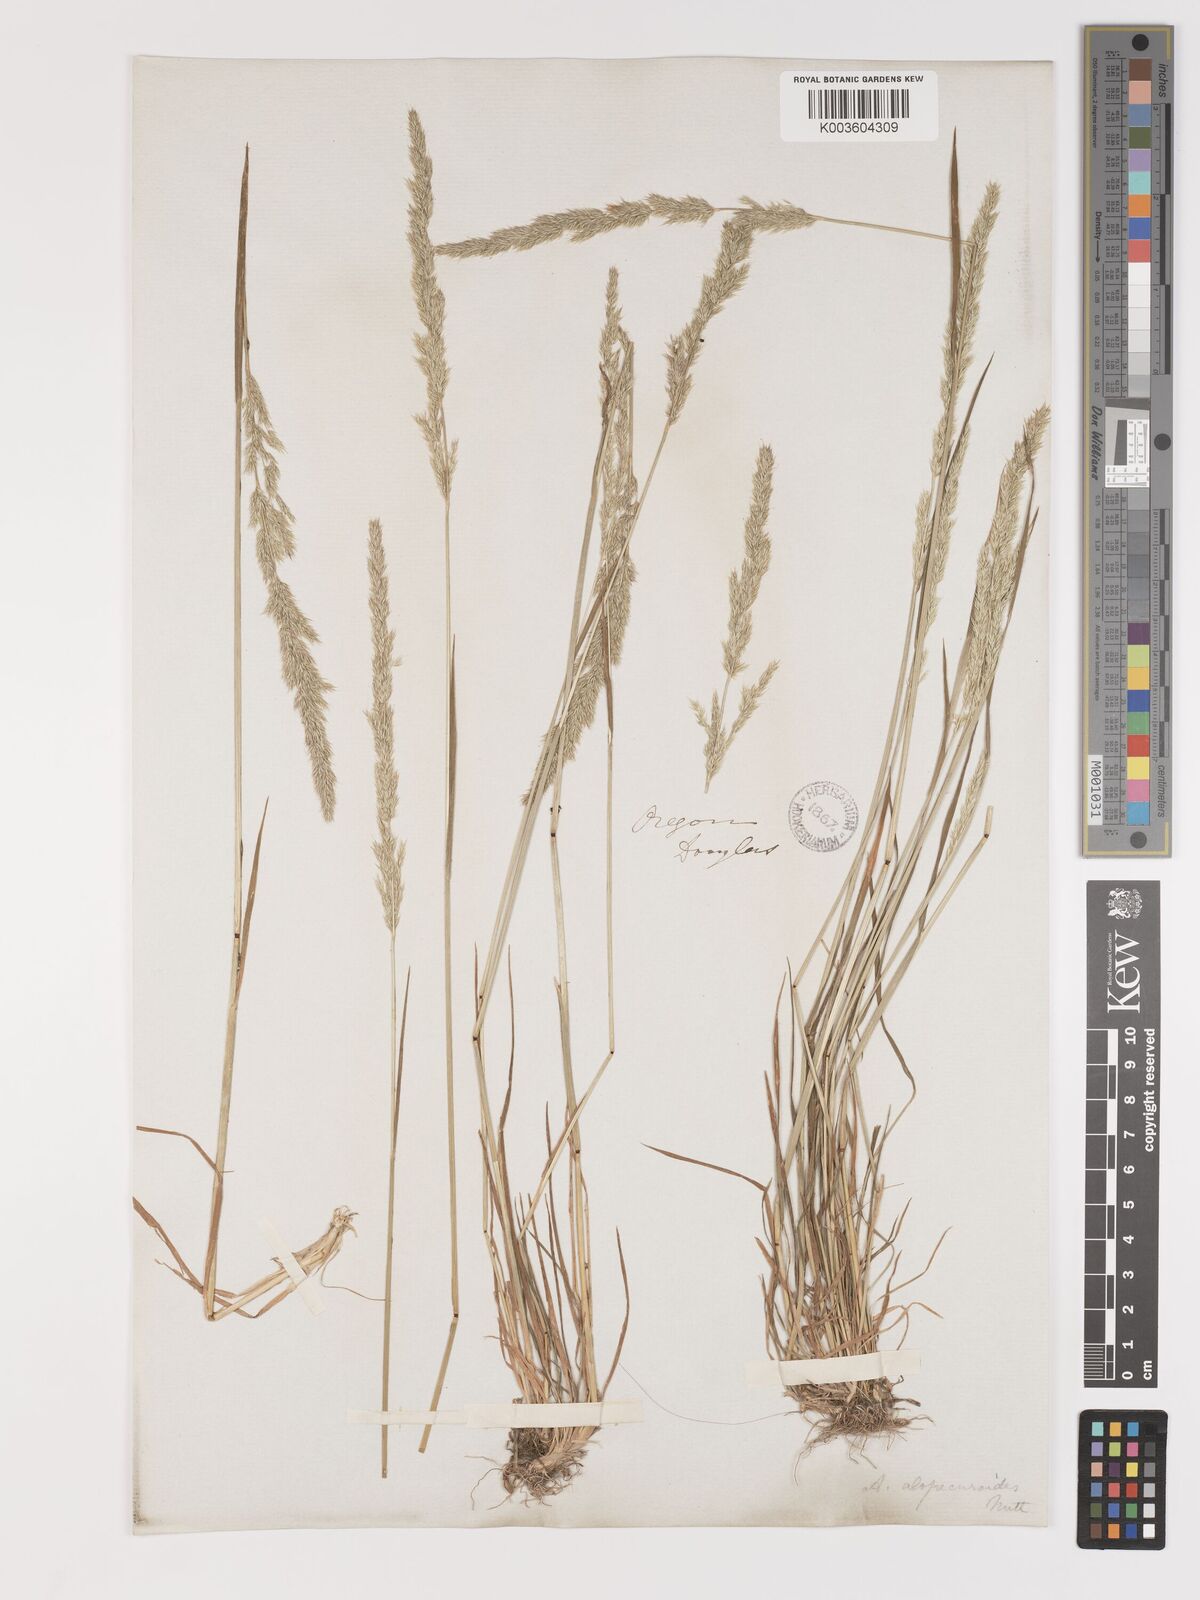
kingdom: Plantae
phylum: Tracheophyta
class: Liliopsida
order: Poales
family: Poaceae
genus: Agrostis
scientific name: Agrostis exarata
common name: Spike bent
